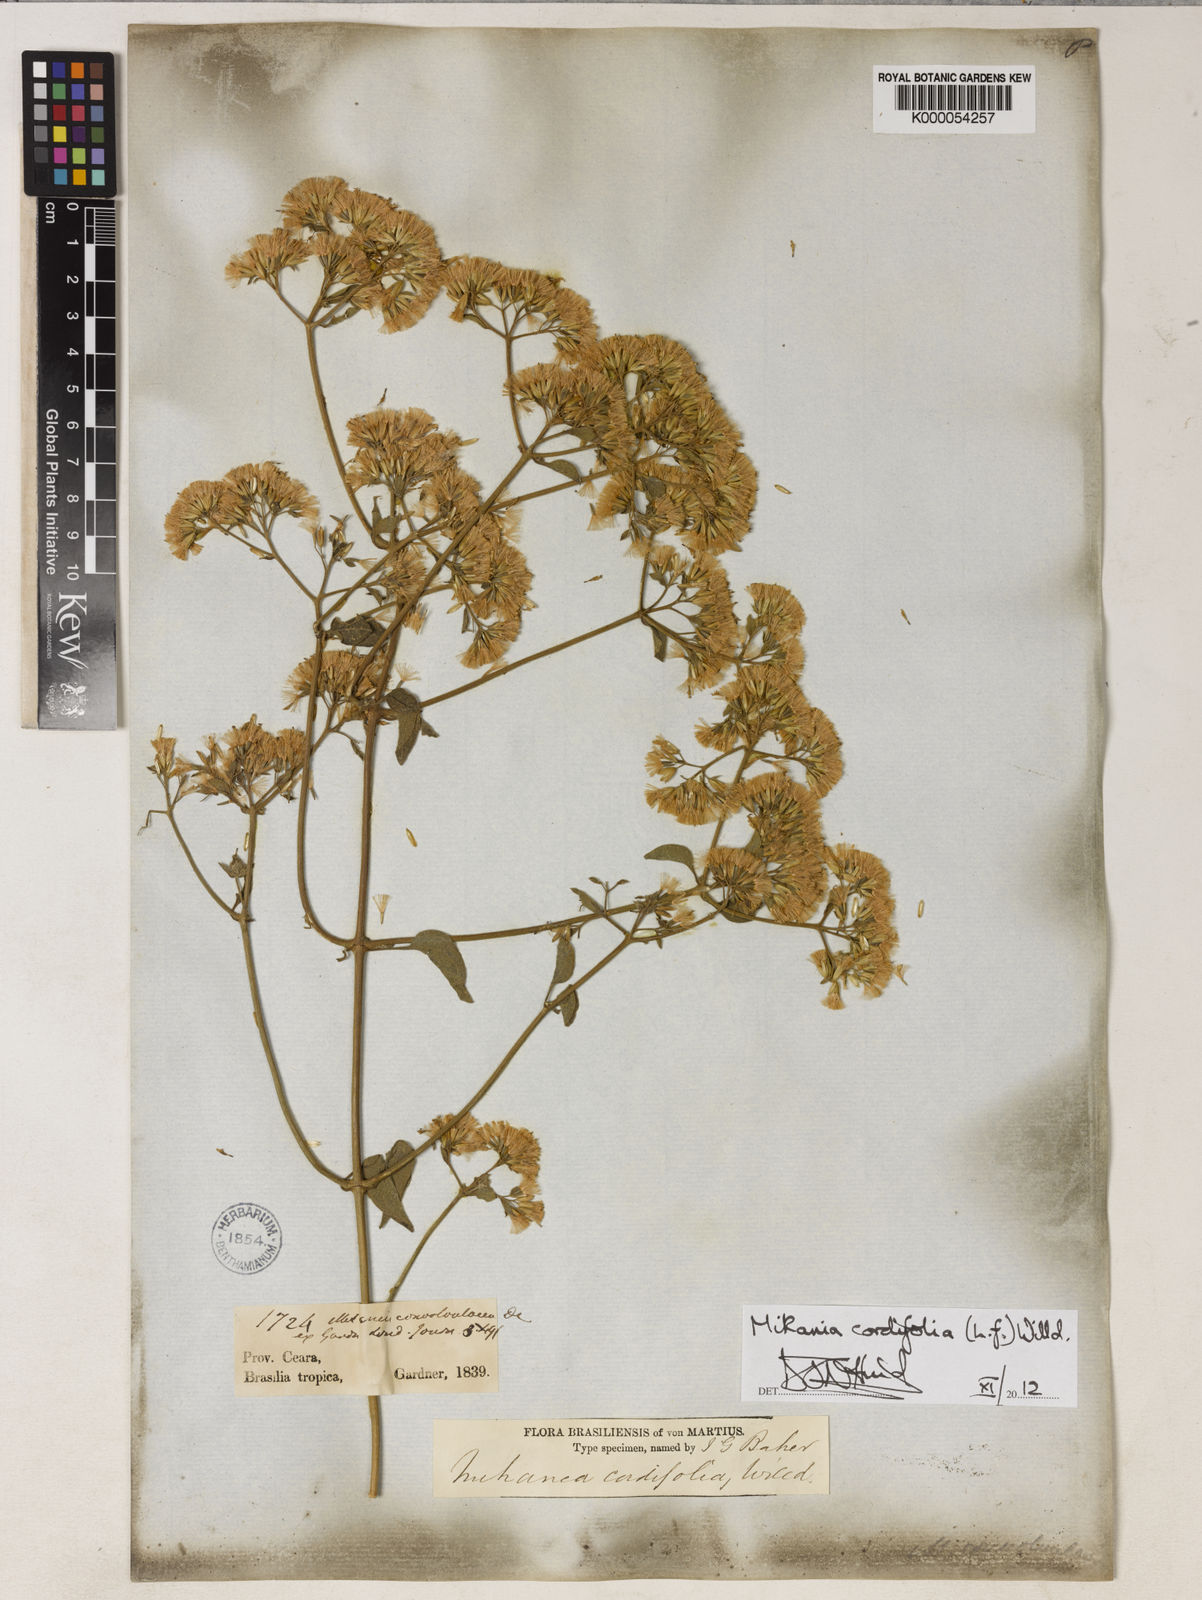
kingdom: Plantae
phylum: Tracheophyta
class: Magnoliopsida
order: Asterales
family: Asteraceae
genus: Mikania
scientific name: Mikania cordifolia
